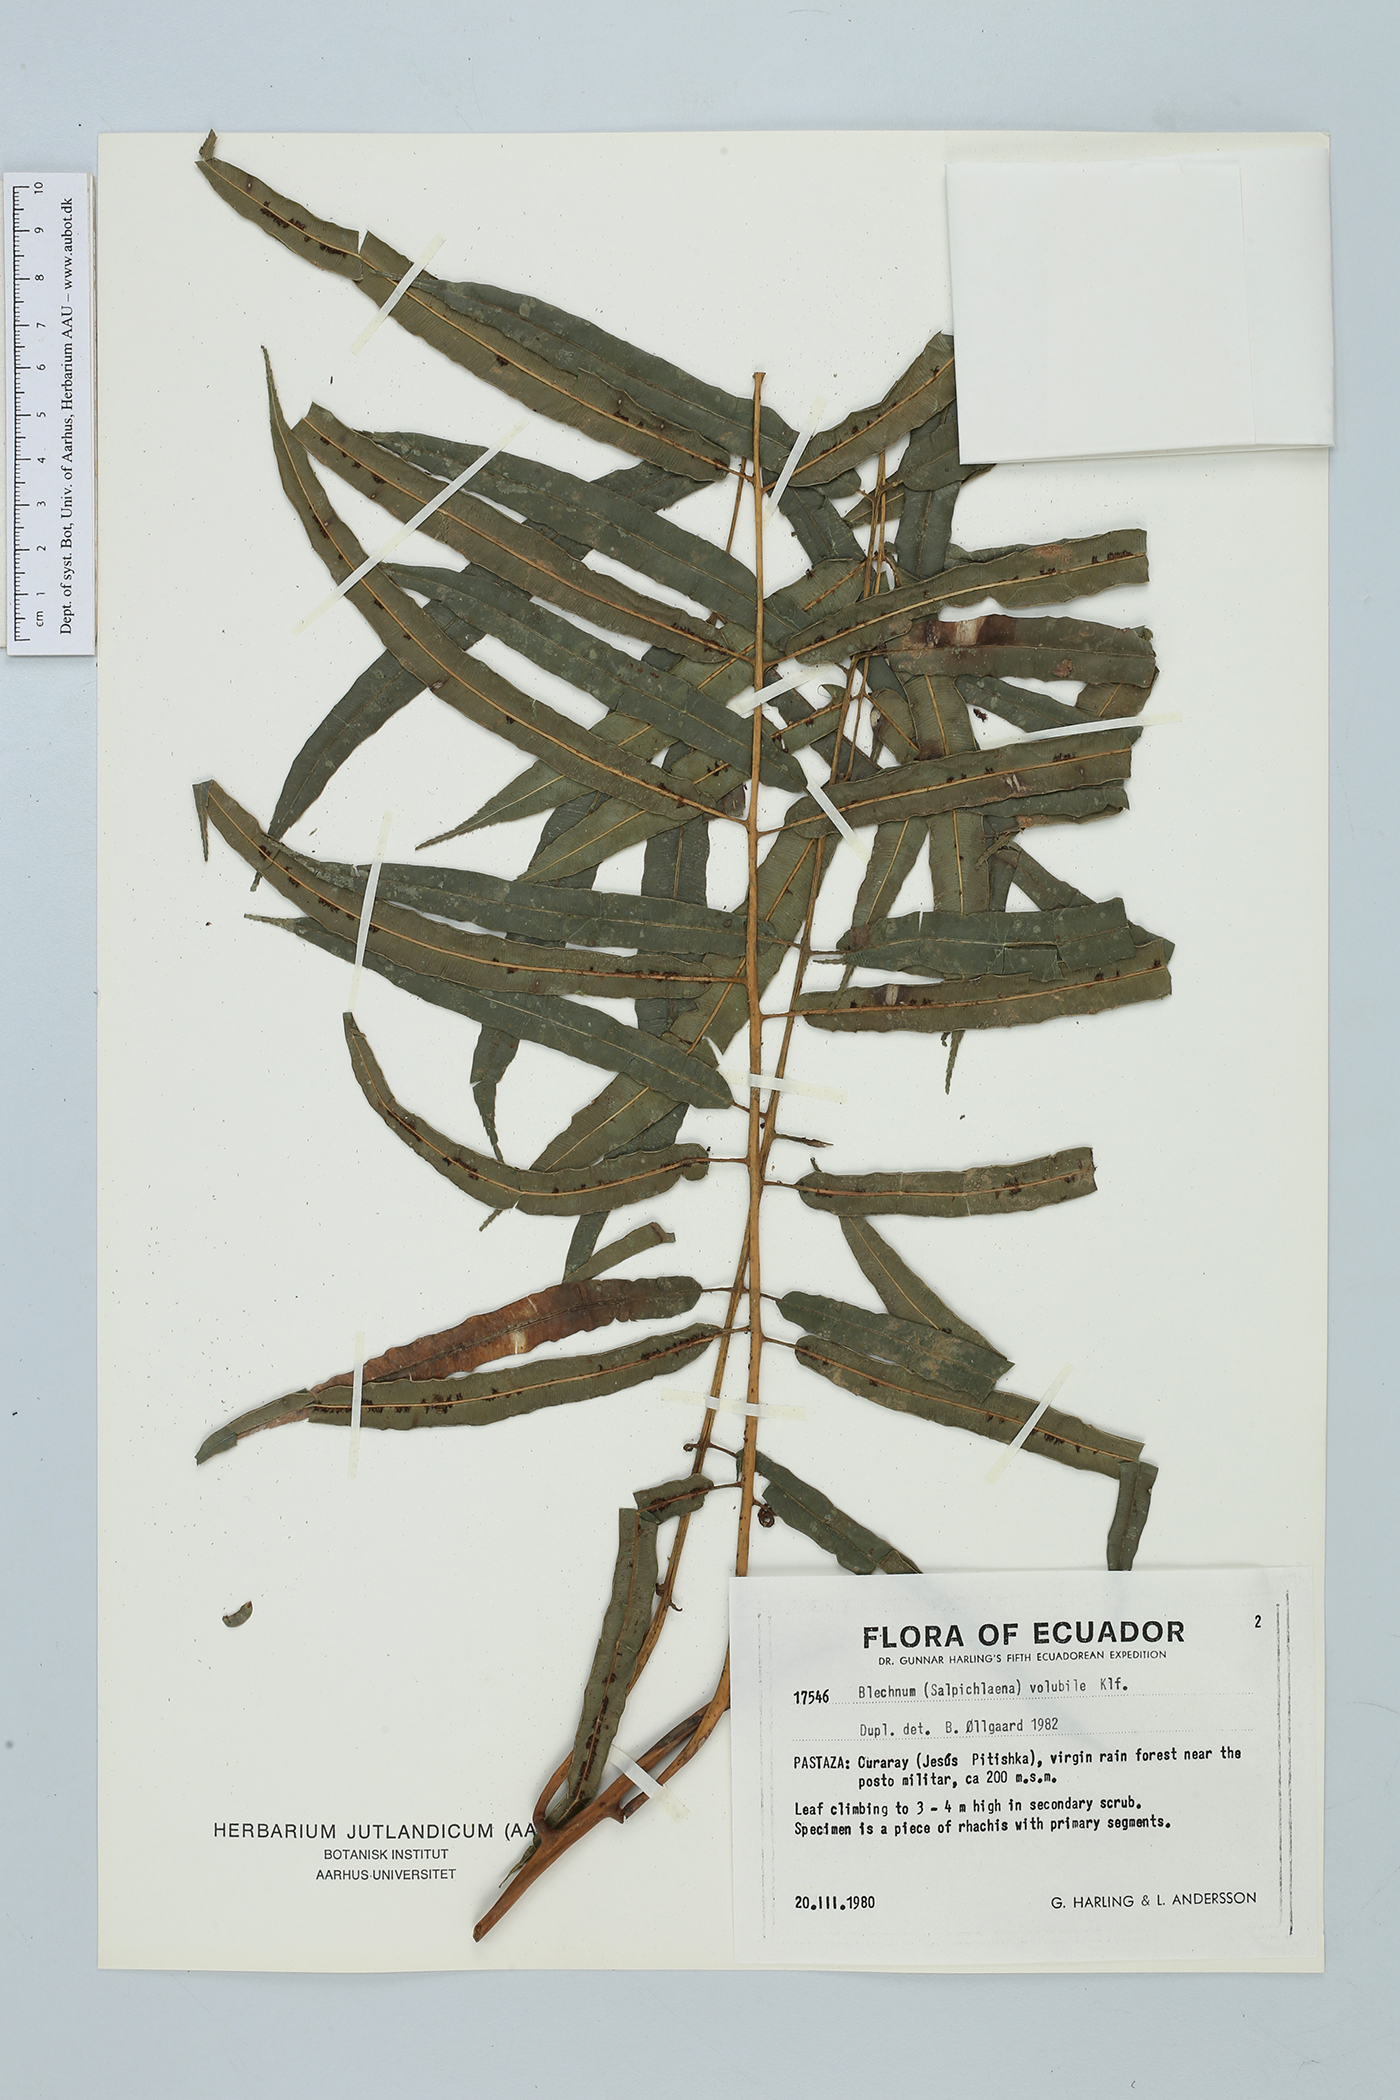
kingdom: Plantae
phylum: Tracheophyta
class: Polypodiopsida
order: Polypodiales
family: Blechnaceae
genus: Salpichlaena
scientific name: Salpichlaena volubilis
